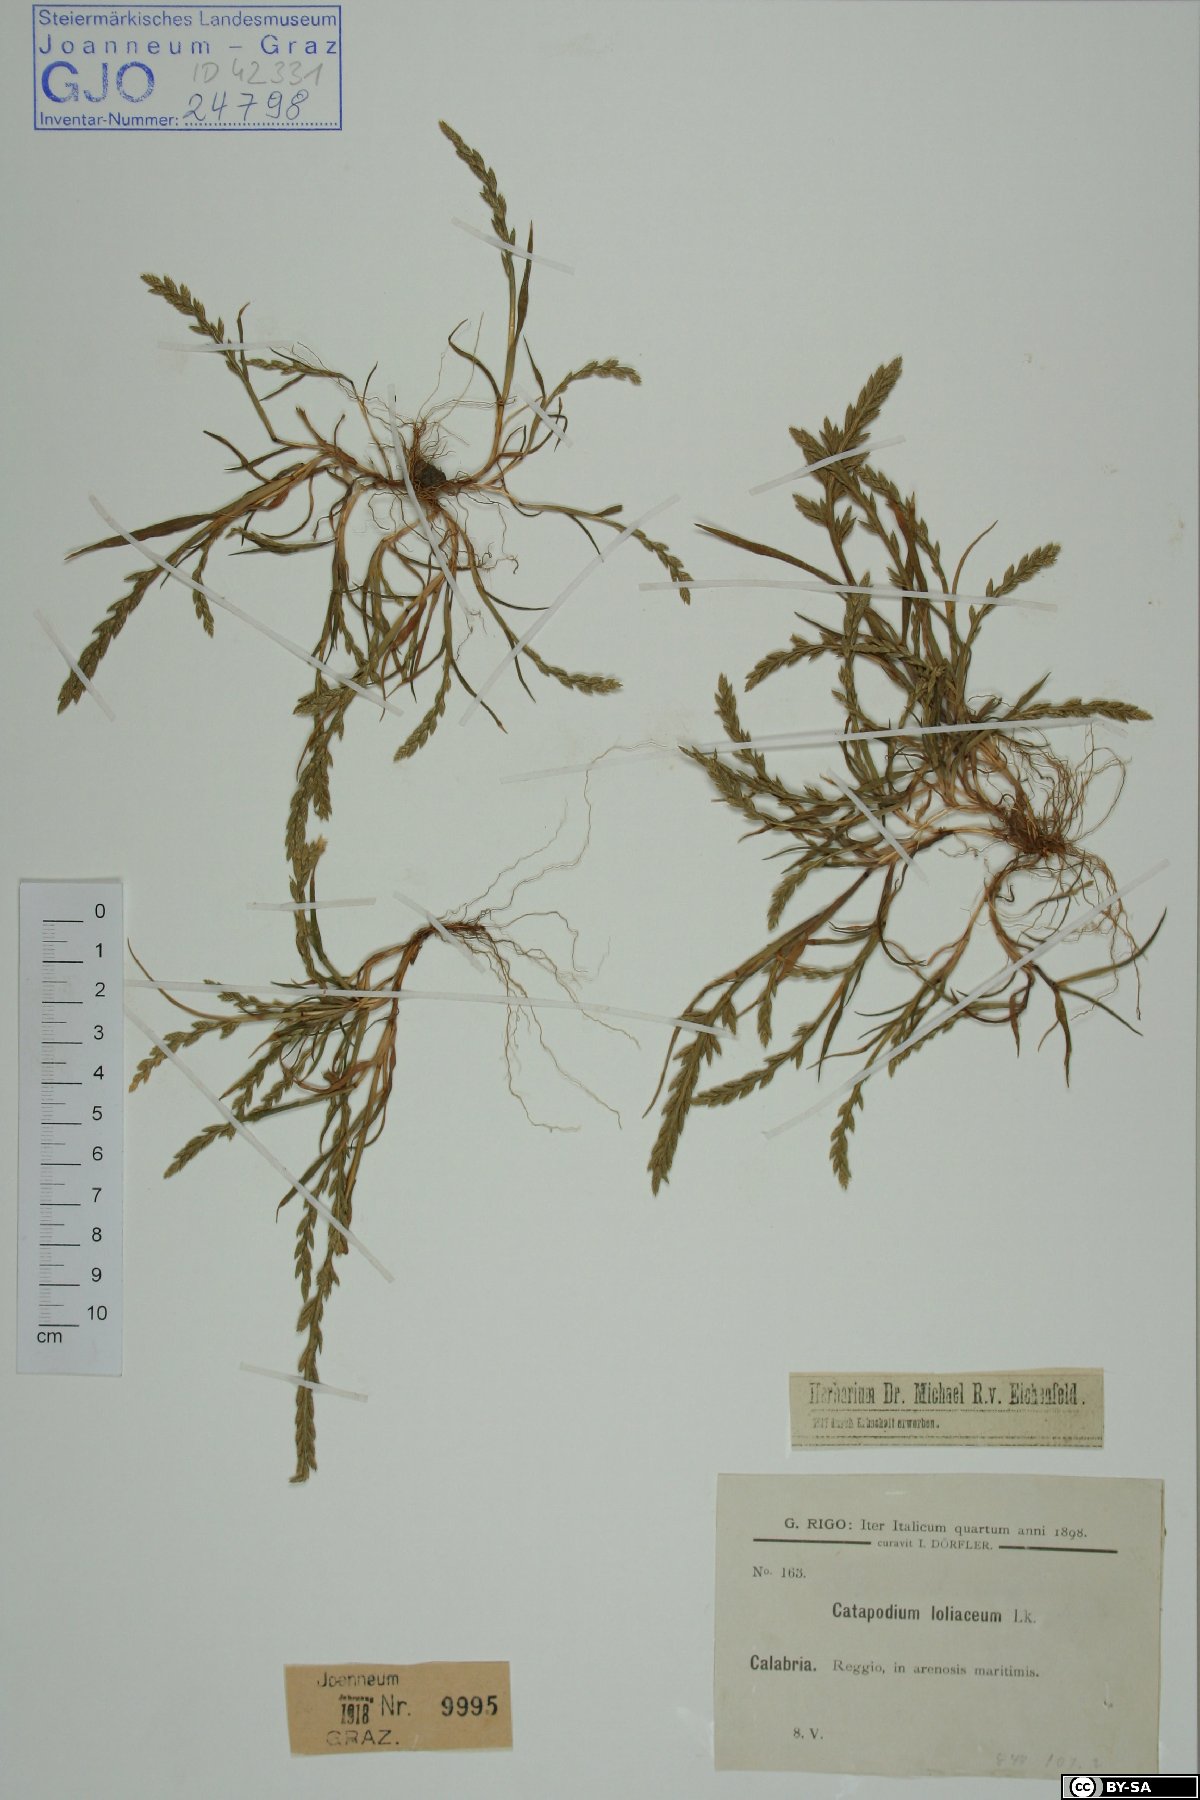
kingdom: Plantae
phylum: Tracheophyta
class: Liliopsida
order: Poales
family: Poaceae
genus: Catapodium
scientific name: Catapodium marinum
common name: Sea fern-grass
